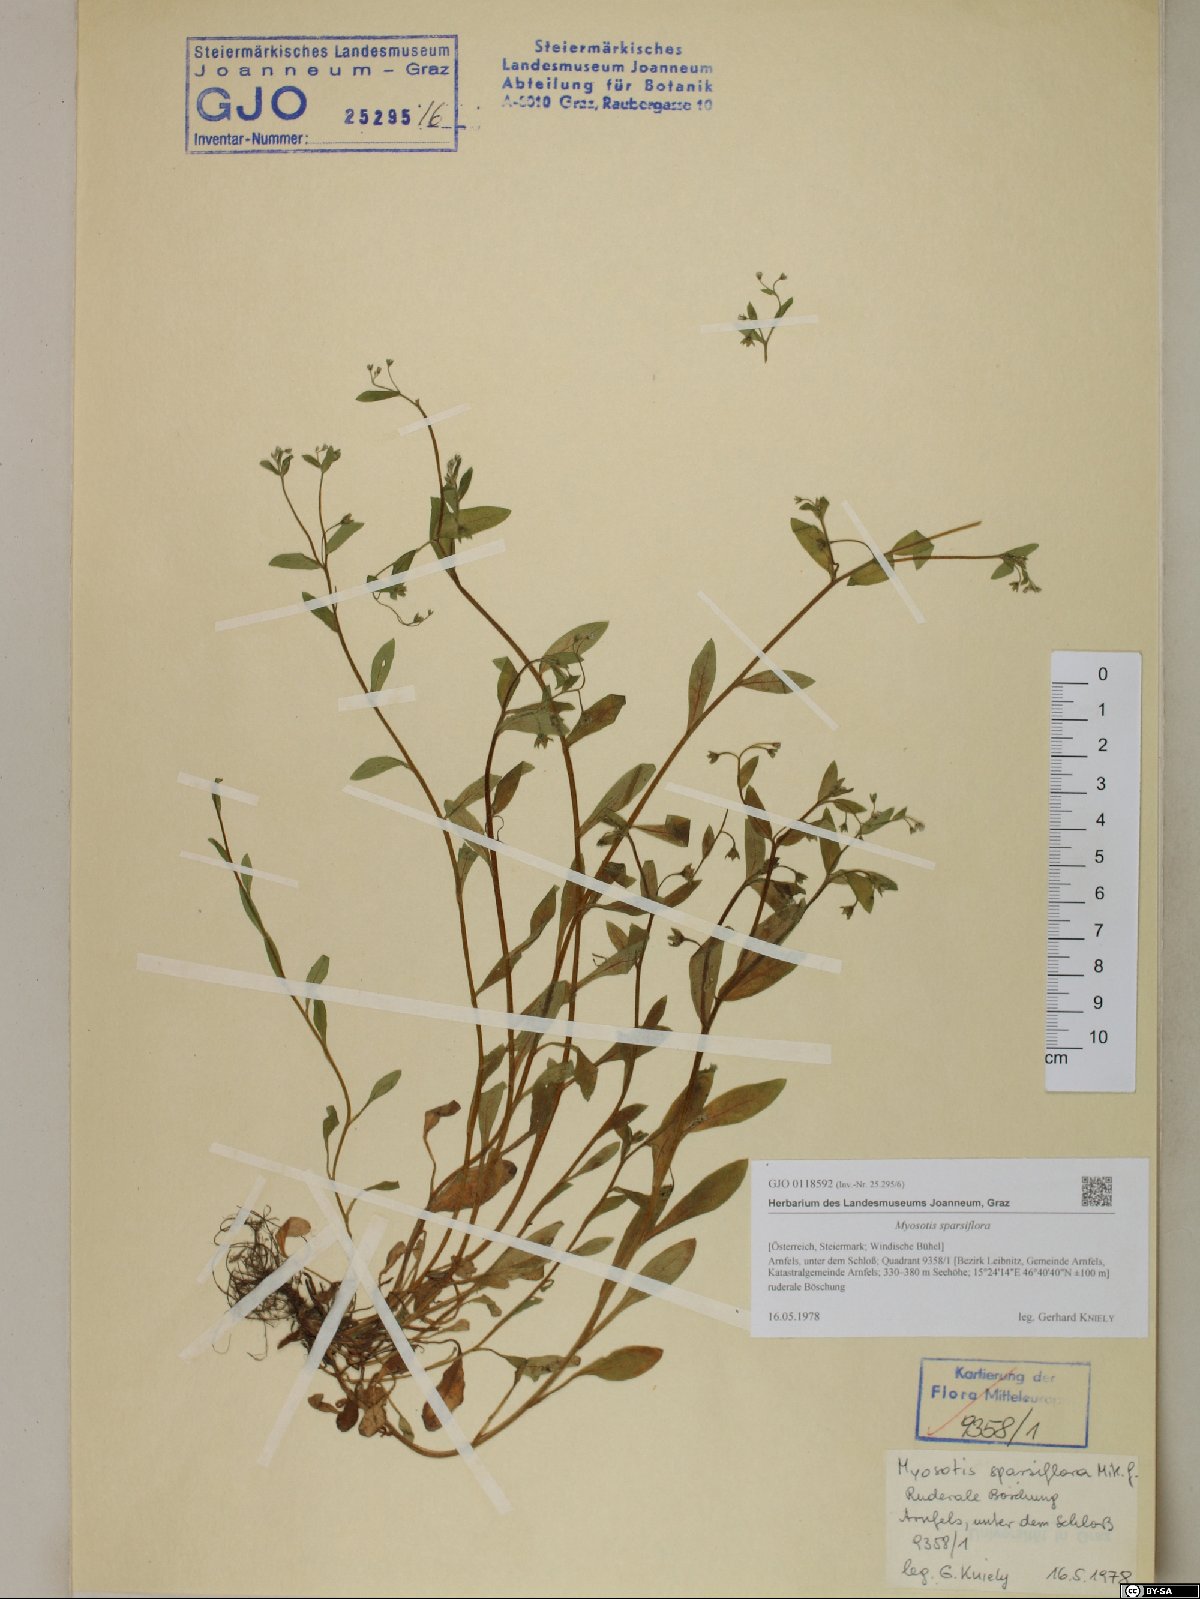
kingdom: Plantae
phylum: Tracheophyta
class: Magnoliopsida
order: Boraginales
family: Boraginaceae
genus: Myosotis
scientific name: Myosotis sparsiflora
